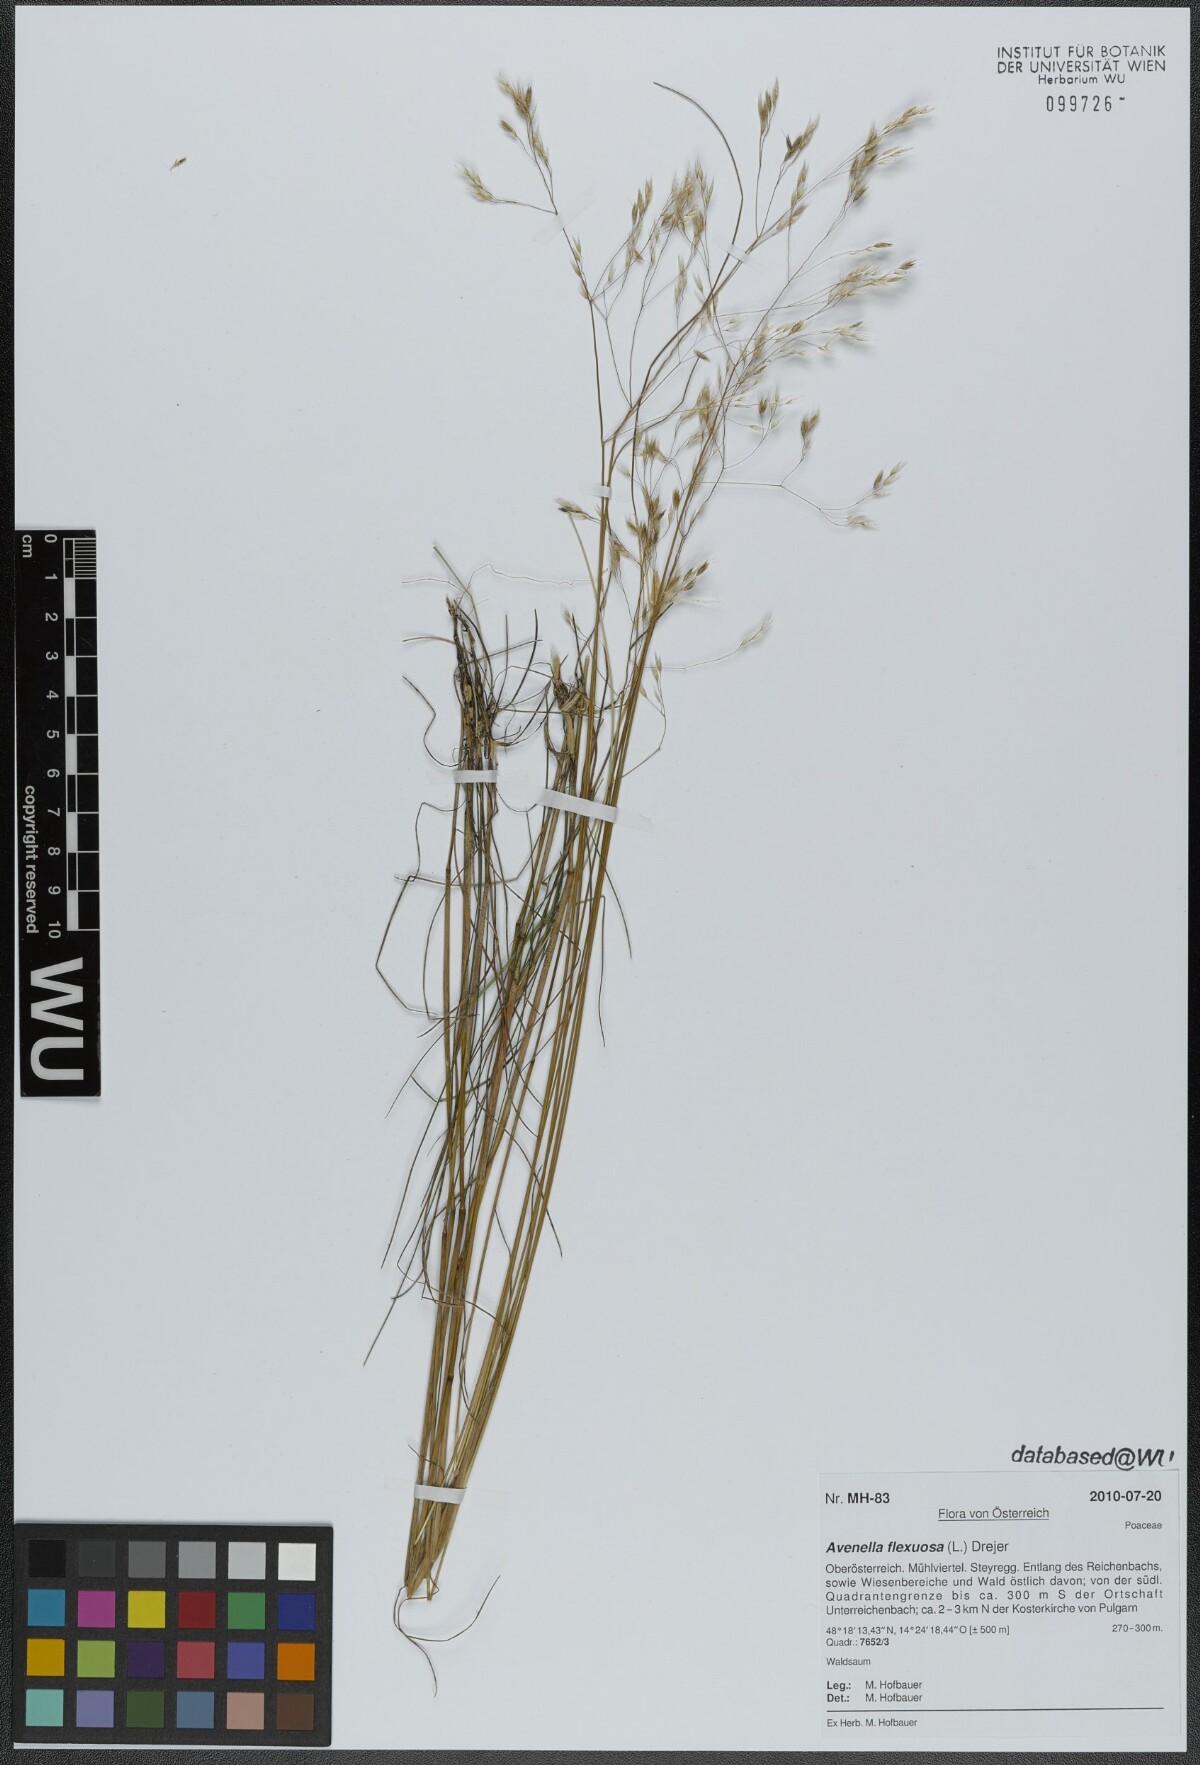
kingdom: Plantae
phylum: Tracheophyta
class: Liliopsida
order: Poales
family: Poaceae
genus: Avenella
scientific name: Avenella flexuosa
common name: Wavy hairgrass
